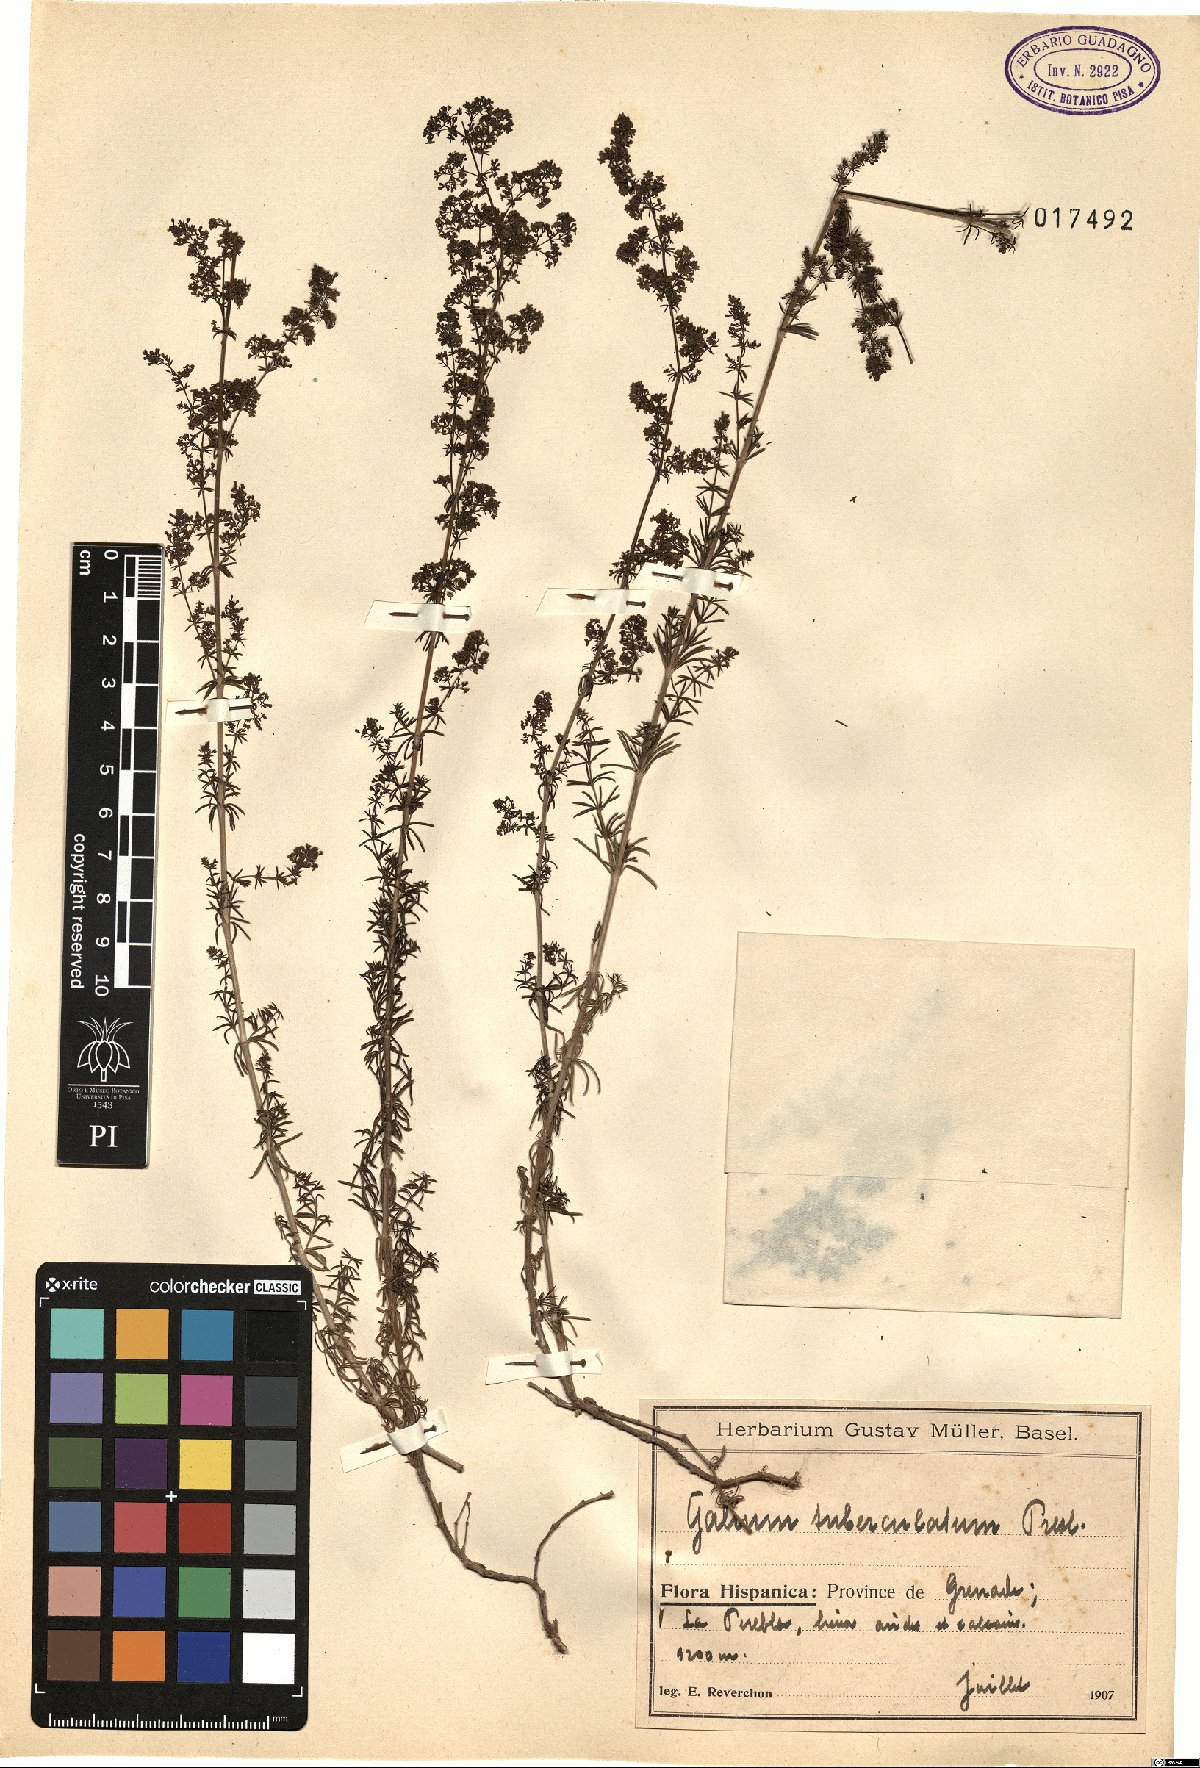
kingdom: Plantae
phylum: Tracheophyta
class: Magnoliopsida
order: Gentianales
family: Rubiaceae
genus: Galium
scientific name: Galium verum
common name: Lady's bedstraw
